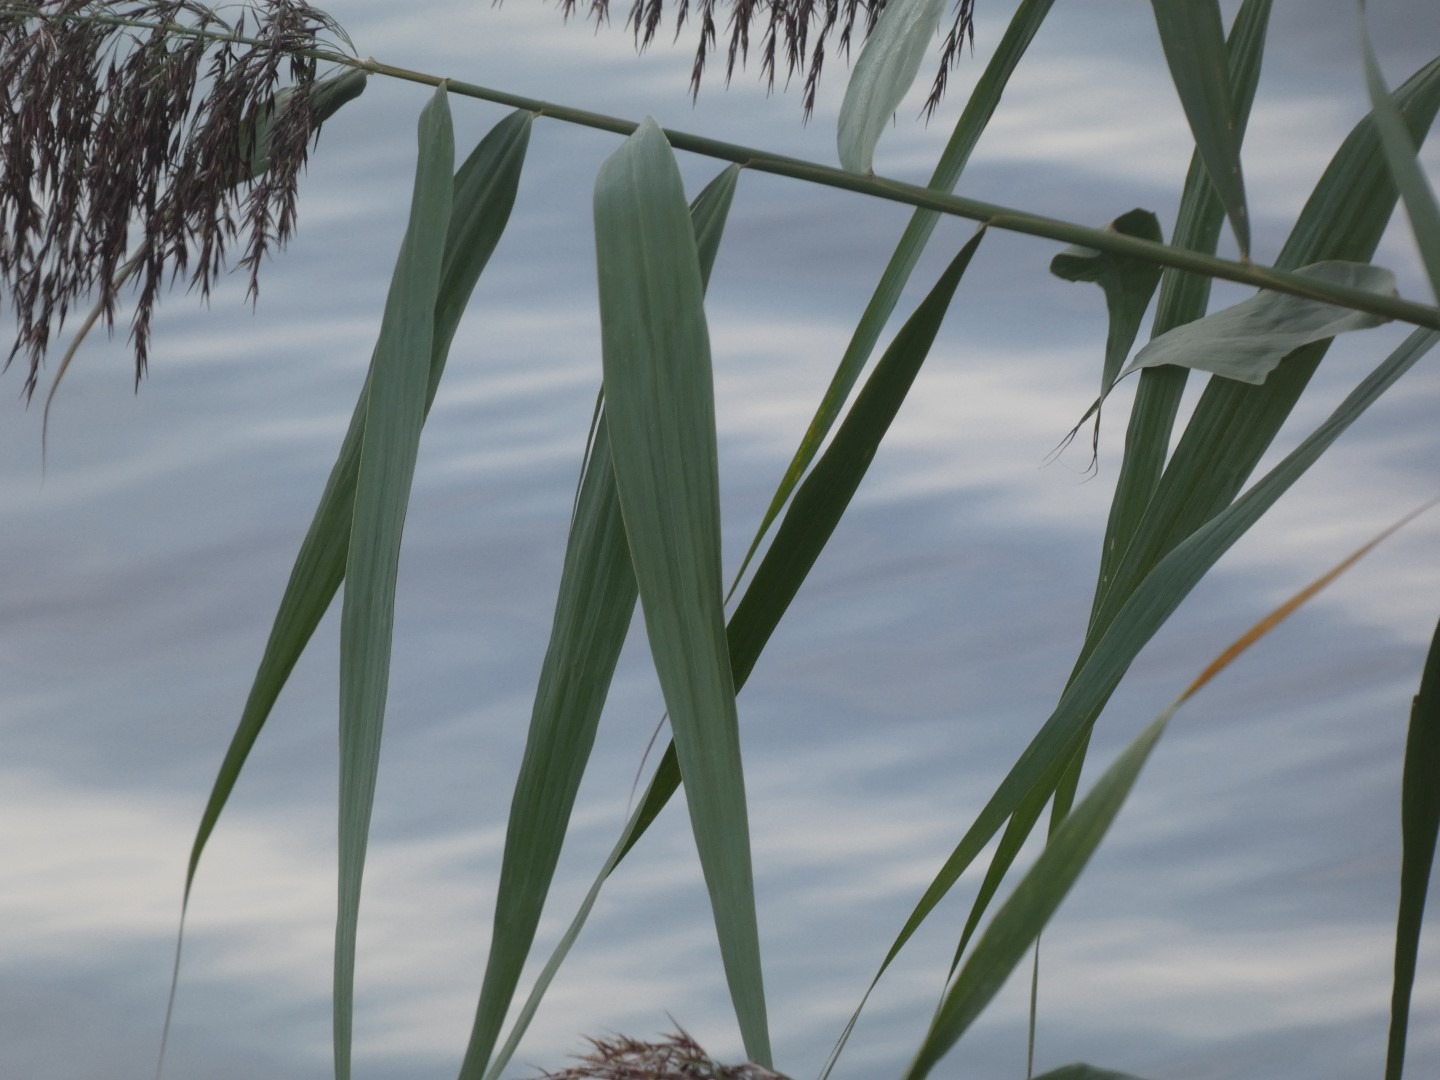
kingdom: Plantae
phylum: Tracheophyta
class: Liliopsida
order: Poales
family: Poaceae
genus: Phragmites
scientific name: Phragmites australis
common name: Tagrør
